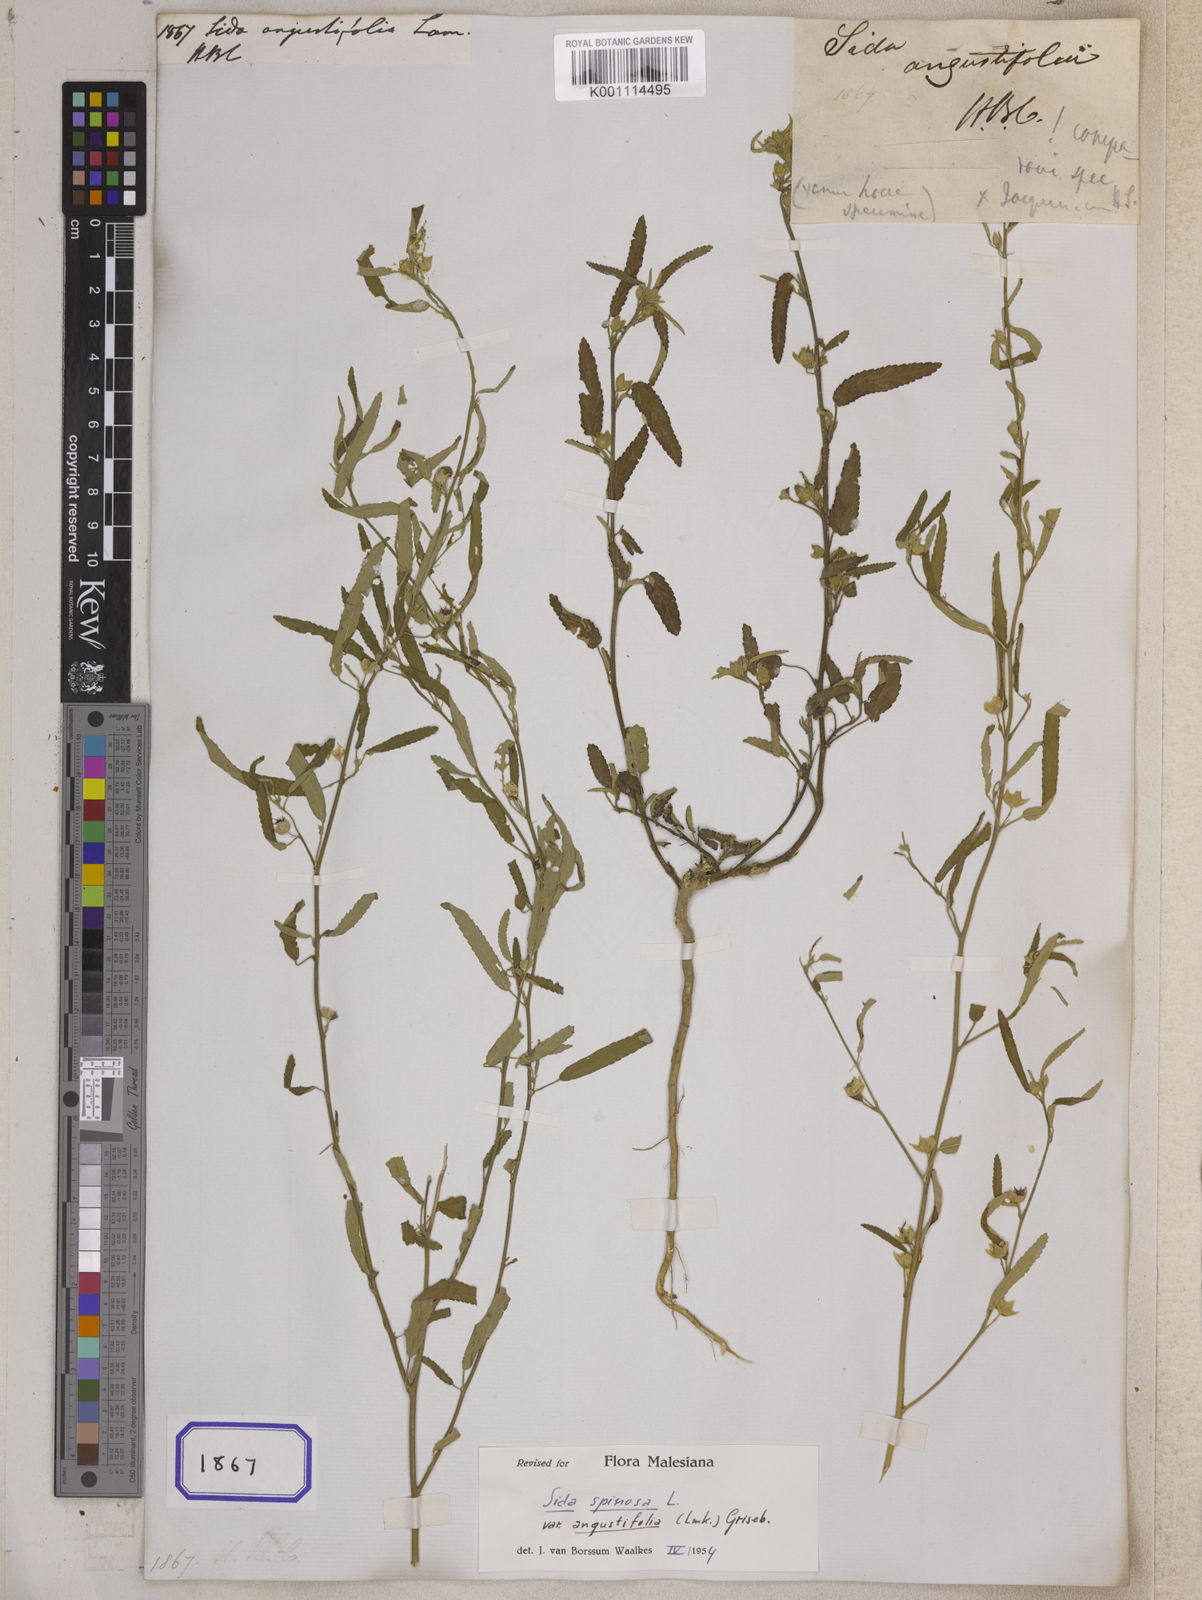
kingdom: Plantae
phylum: Tracheophyta
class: Magnoliopsida
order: Malvales
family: Malvaceae
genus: Sida
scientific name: Sida spinosa
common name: Prickly fanpetals
